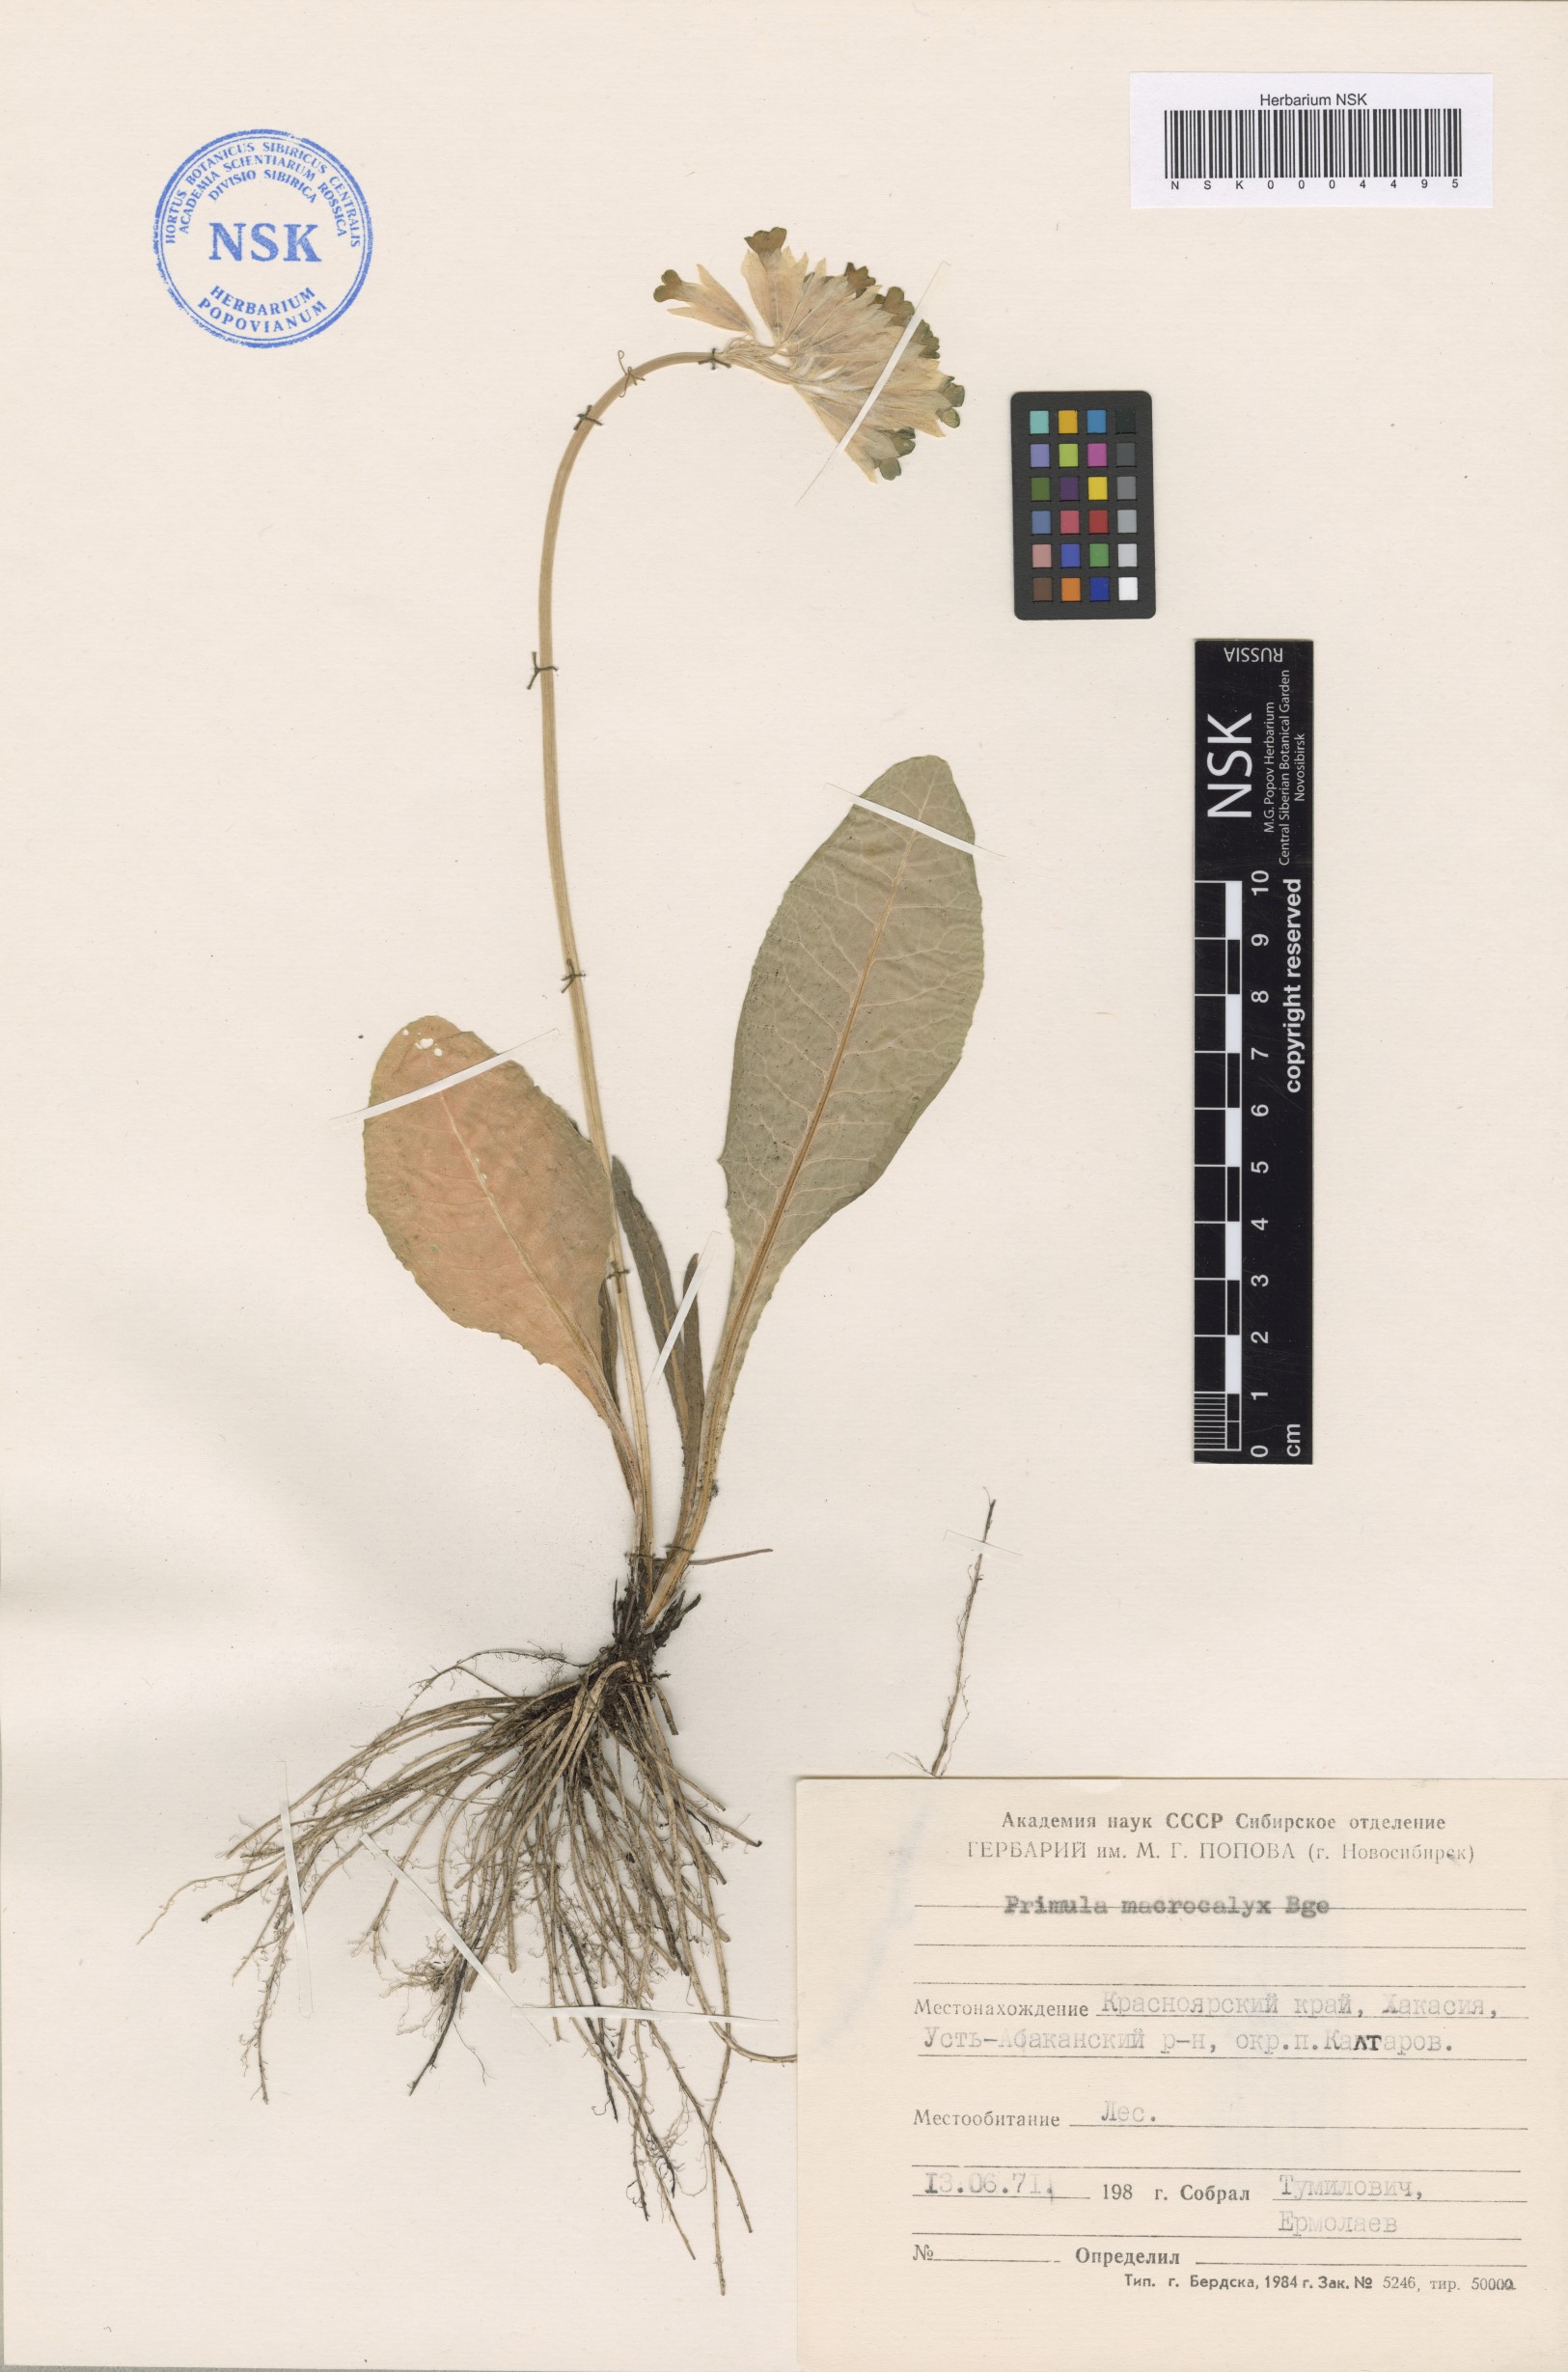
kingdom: Plantae
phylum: Tracheophyta
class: Magnoliopsida
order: Ericales
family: Primulaceae
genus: Primula
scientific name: Primula veris
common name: Cowslip
